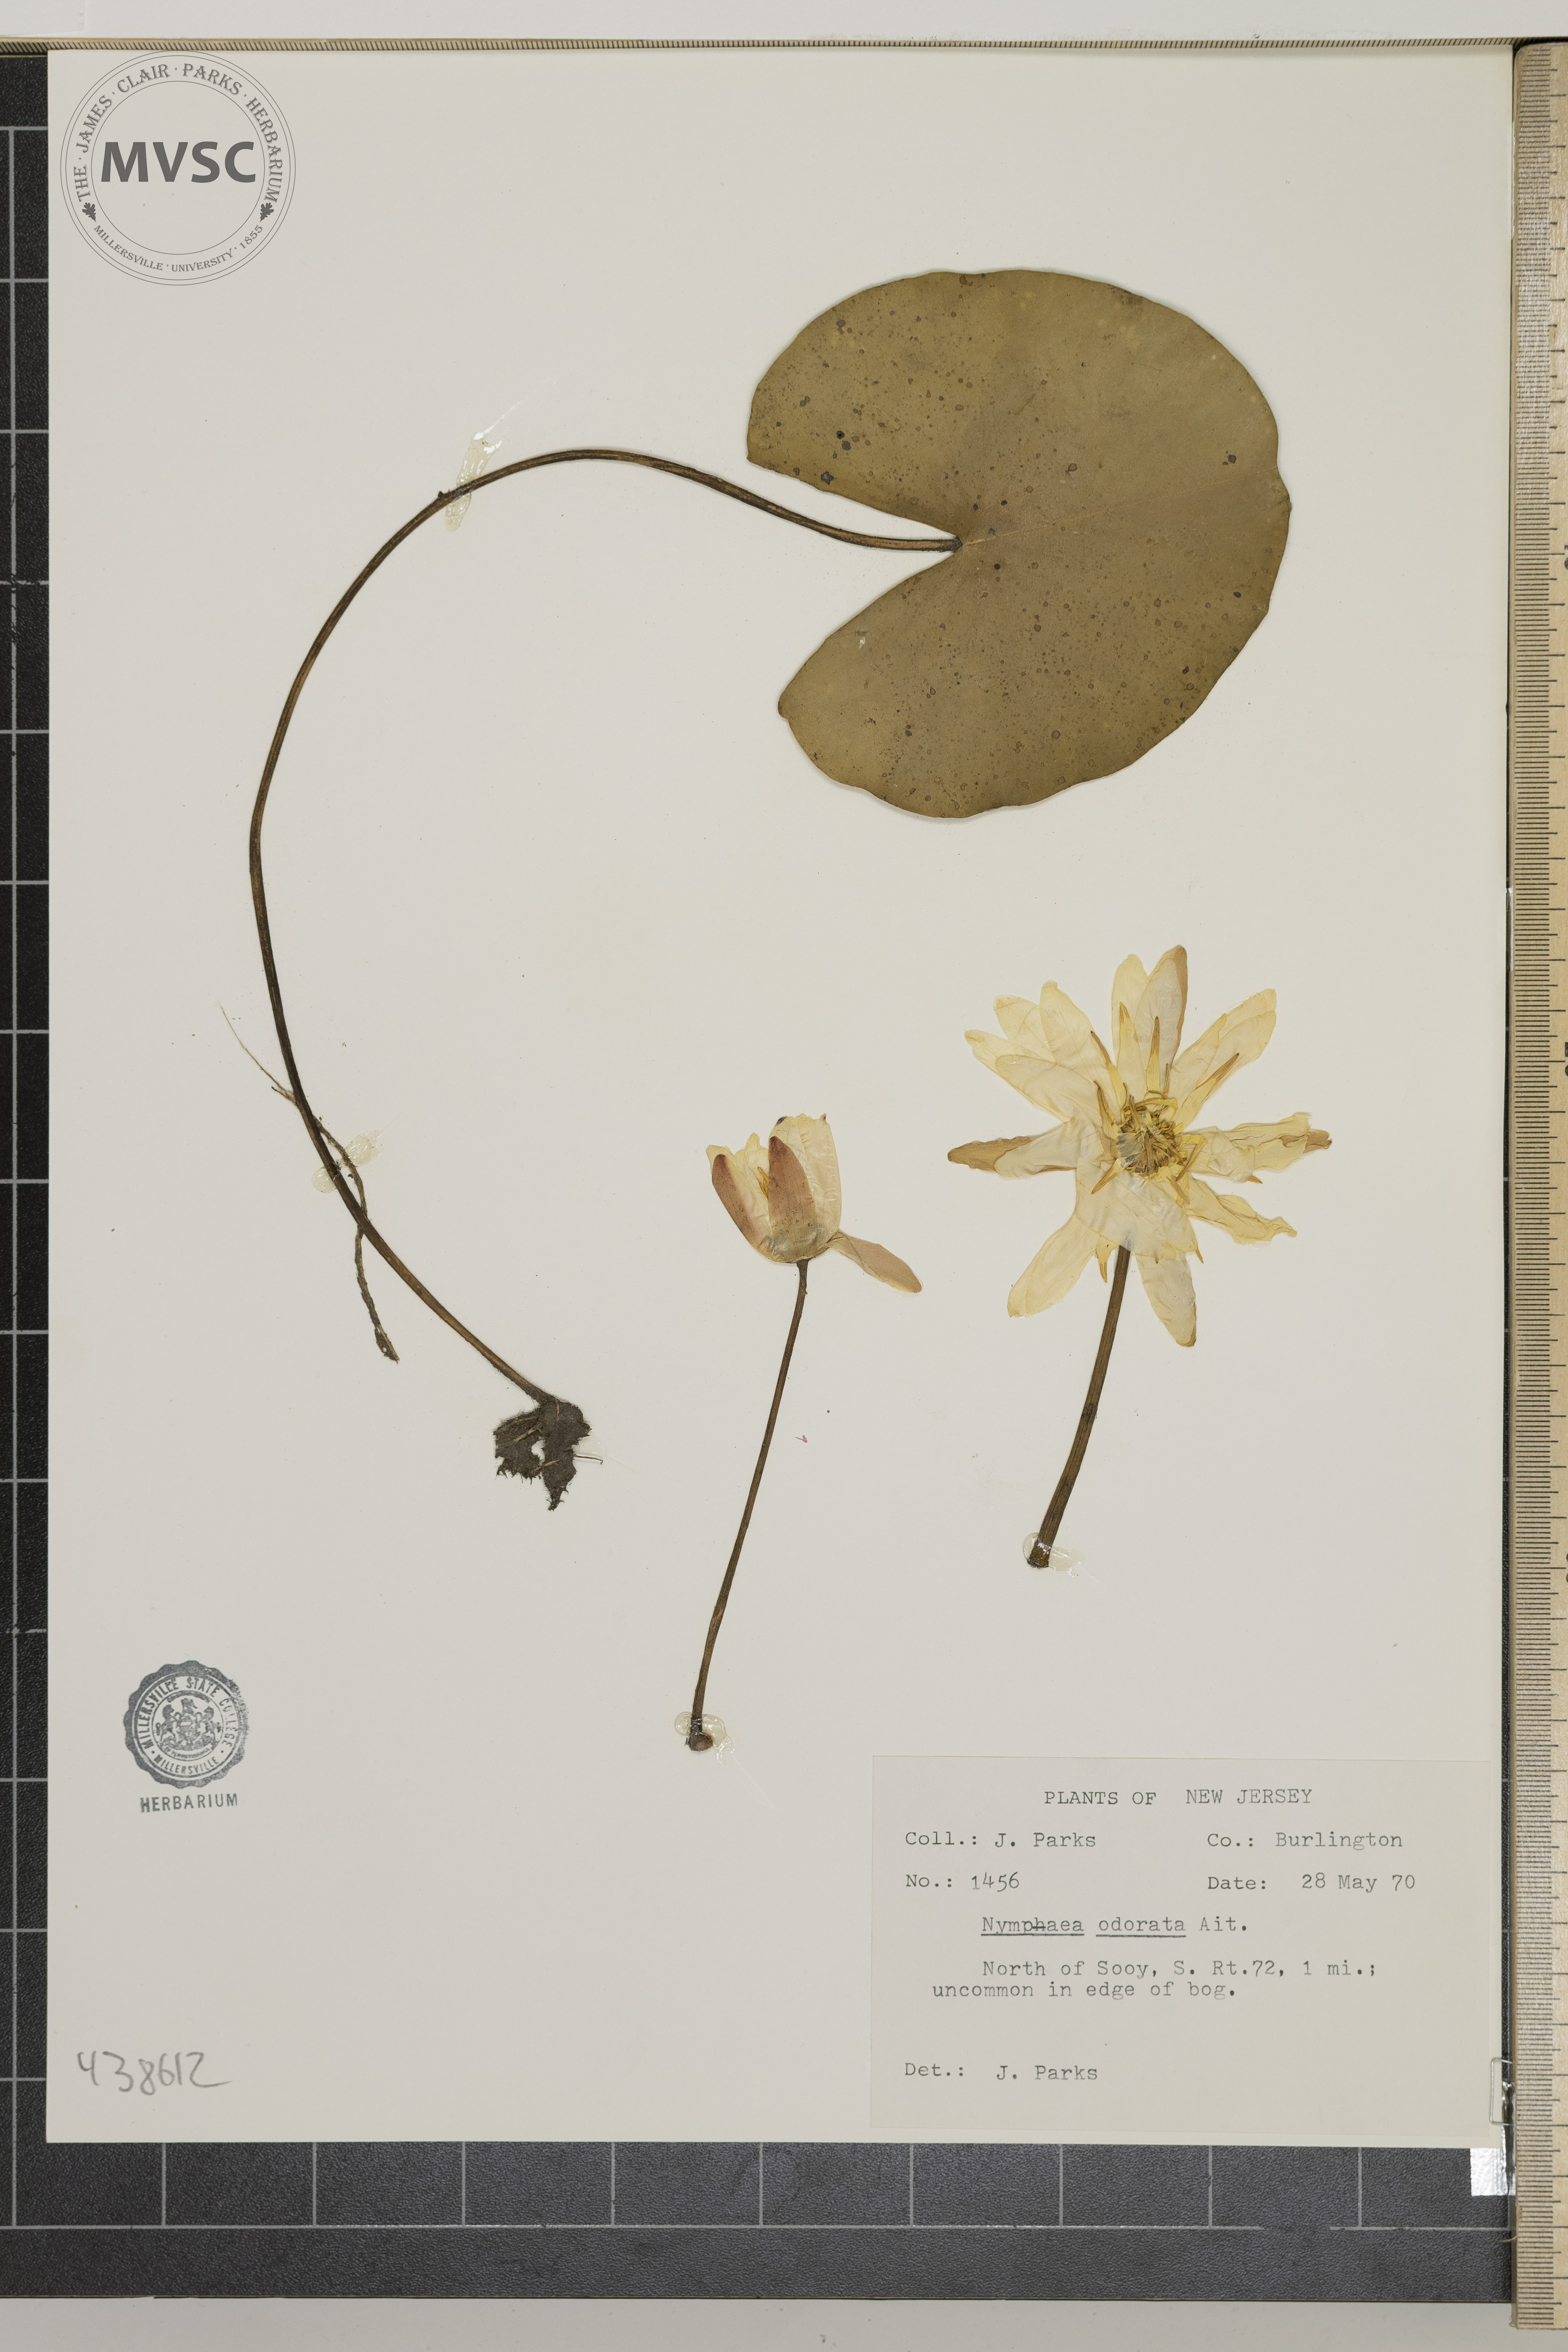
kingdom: Plantae
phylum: Tracheophyta
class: Magnoliopsida
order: Nymphaeales
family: Nymphaeaceae
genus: Nymphaea
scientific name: Nymphaea odorata
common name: Fragrant water-lily
